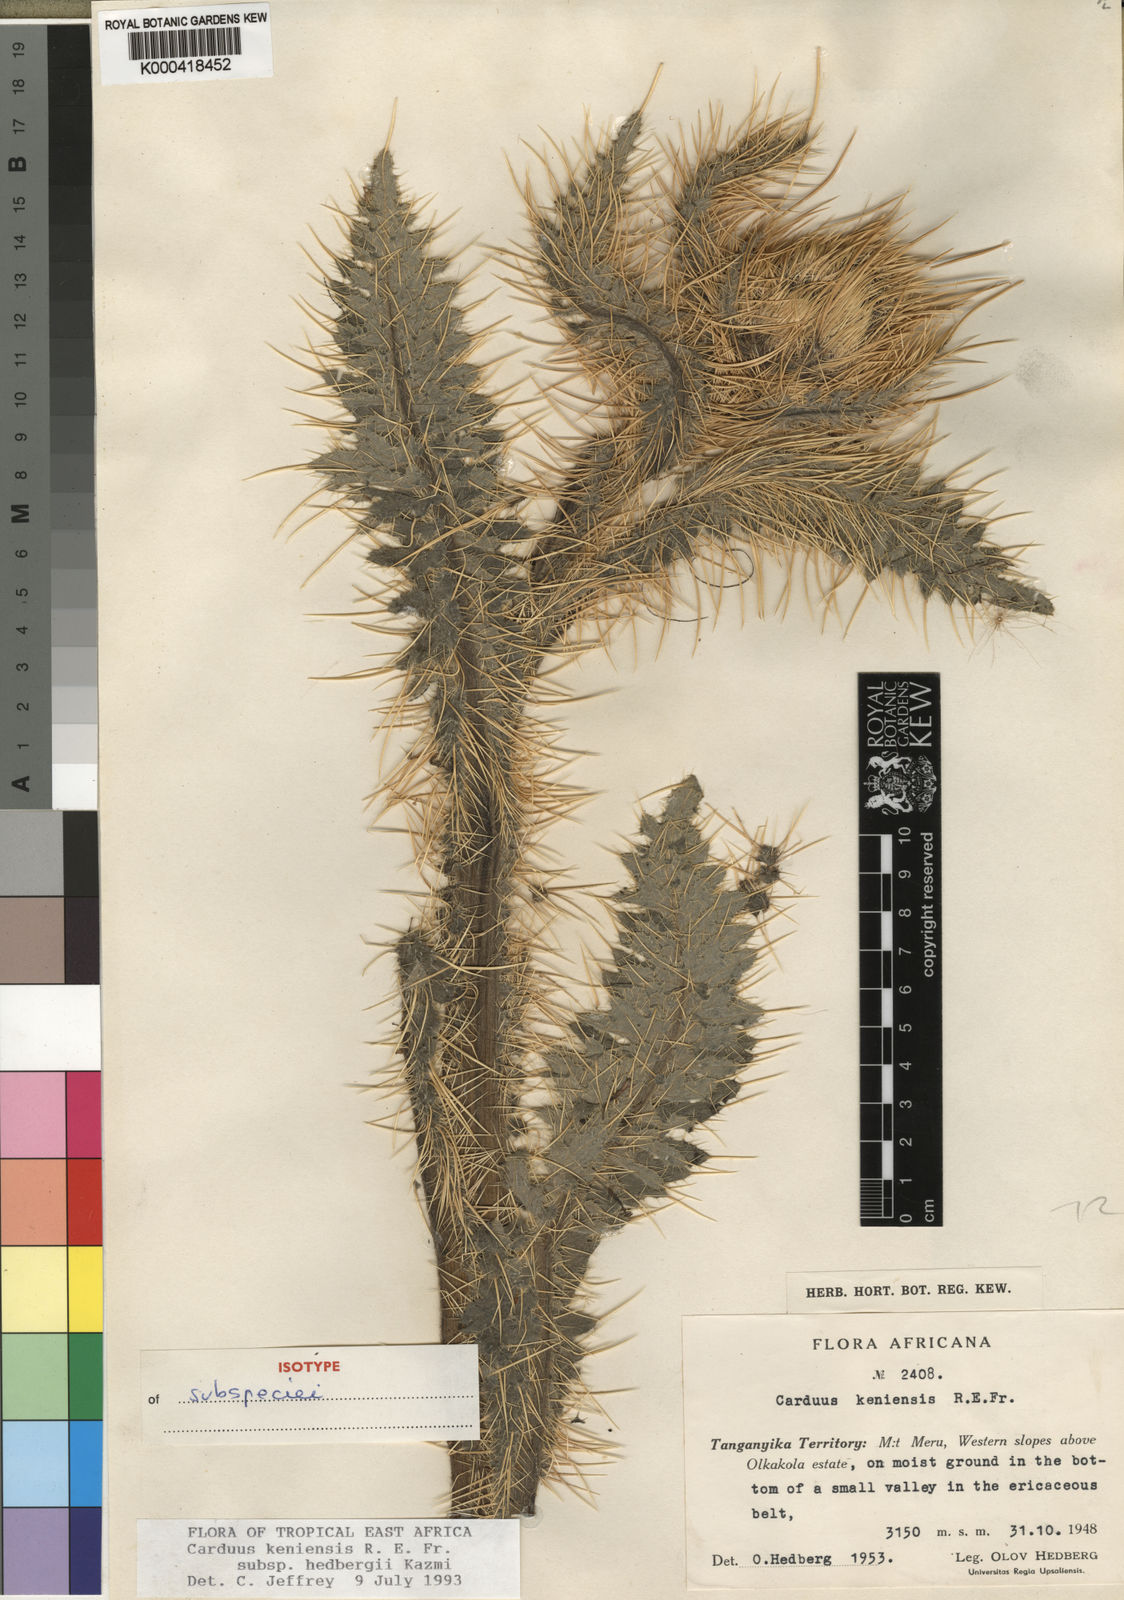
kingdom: Plantae
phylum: Tracheophyta
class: Magnoliopsida
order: Asterales
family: Asteraceae
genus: Carduus
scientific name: Carduus keniensis
